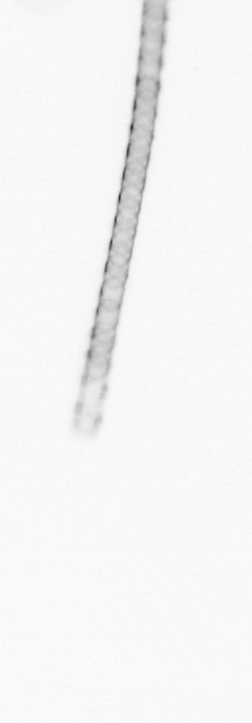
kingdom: Chromista
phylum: Ochrophyta
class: Bacillariophyceae
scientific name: Bacillariophyceae
